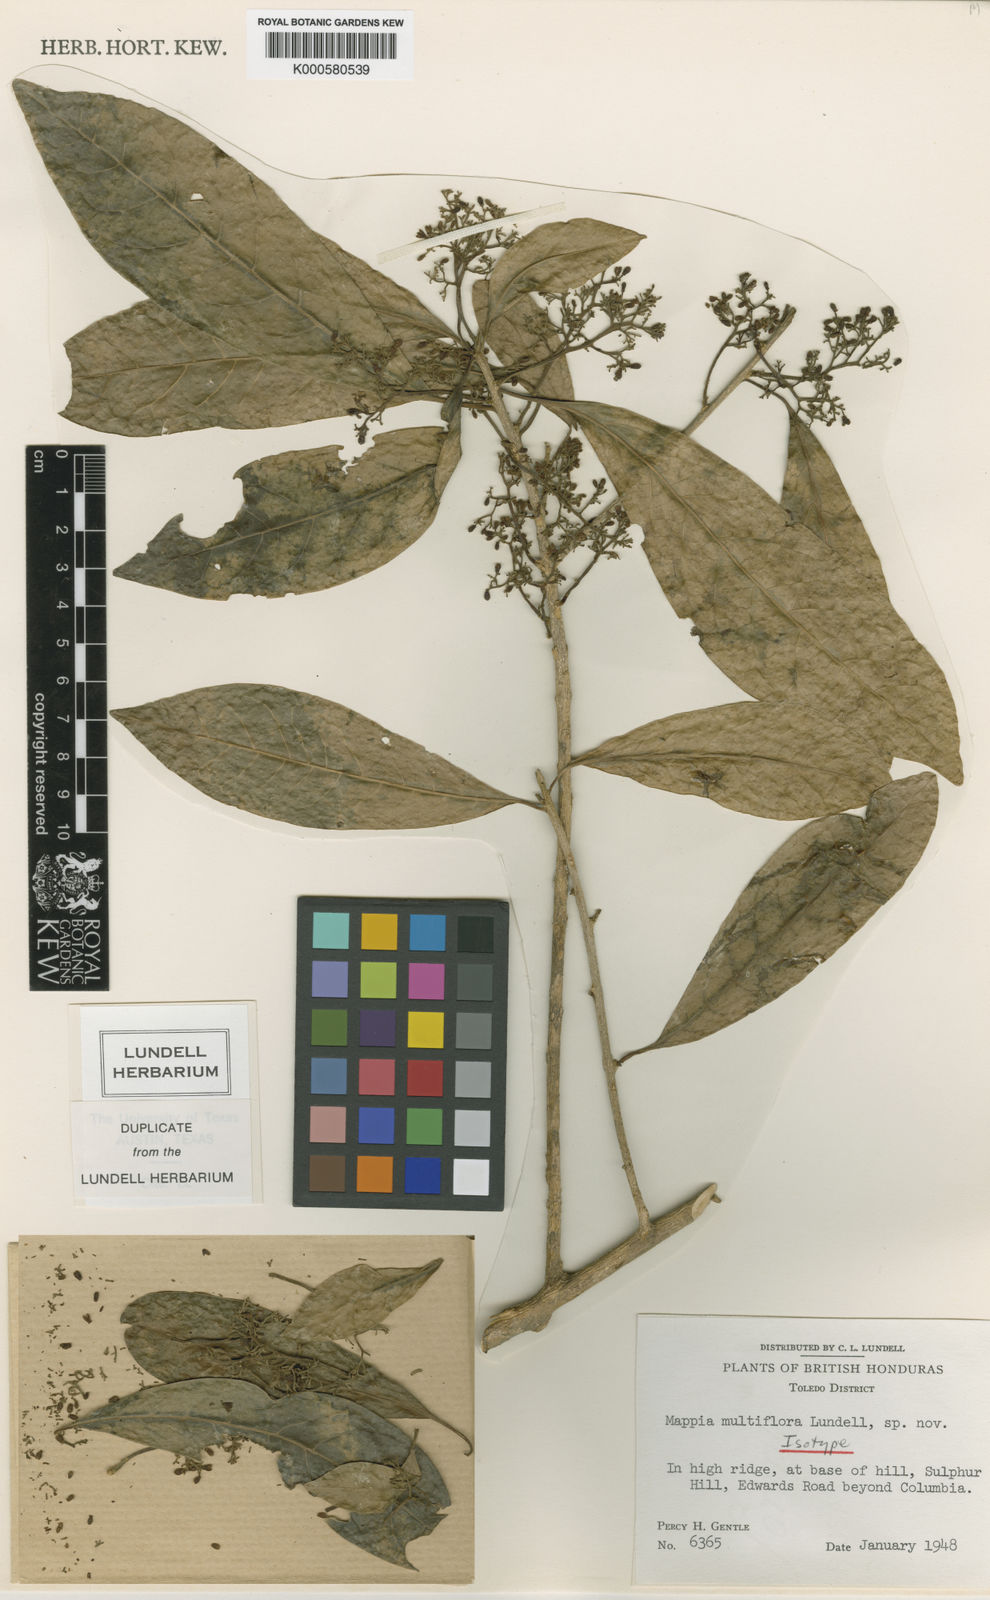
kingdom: Plantae
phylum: Tracheophyta
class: Magnoliopsida
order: Icacinales
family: Icacinaceae
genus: Mappia
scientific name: Mappia multiflora
